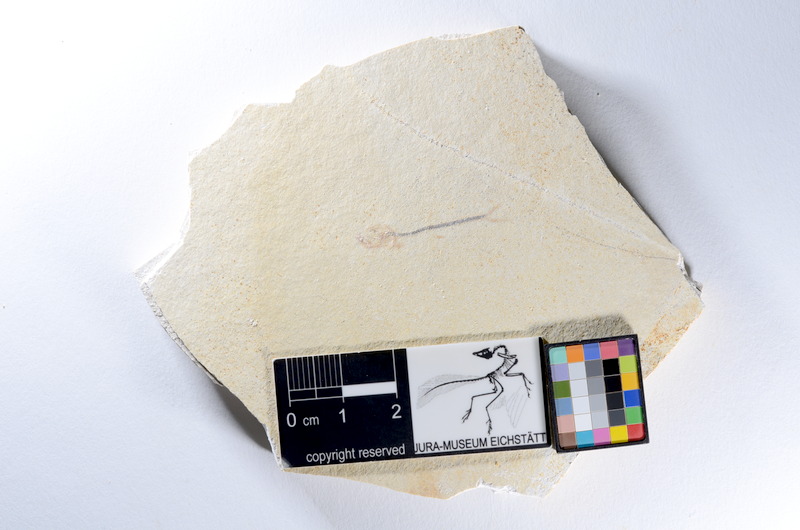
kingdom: Animalia
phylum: Chordata
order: Salmoniformes
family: Orthogonikleithridae
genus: Orthogonikleithrus
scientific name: Orthogonikleithrus hoelli
